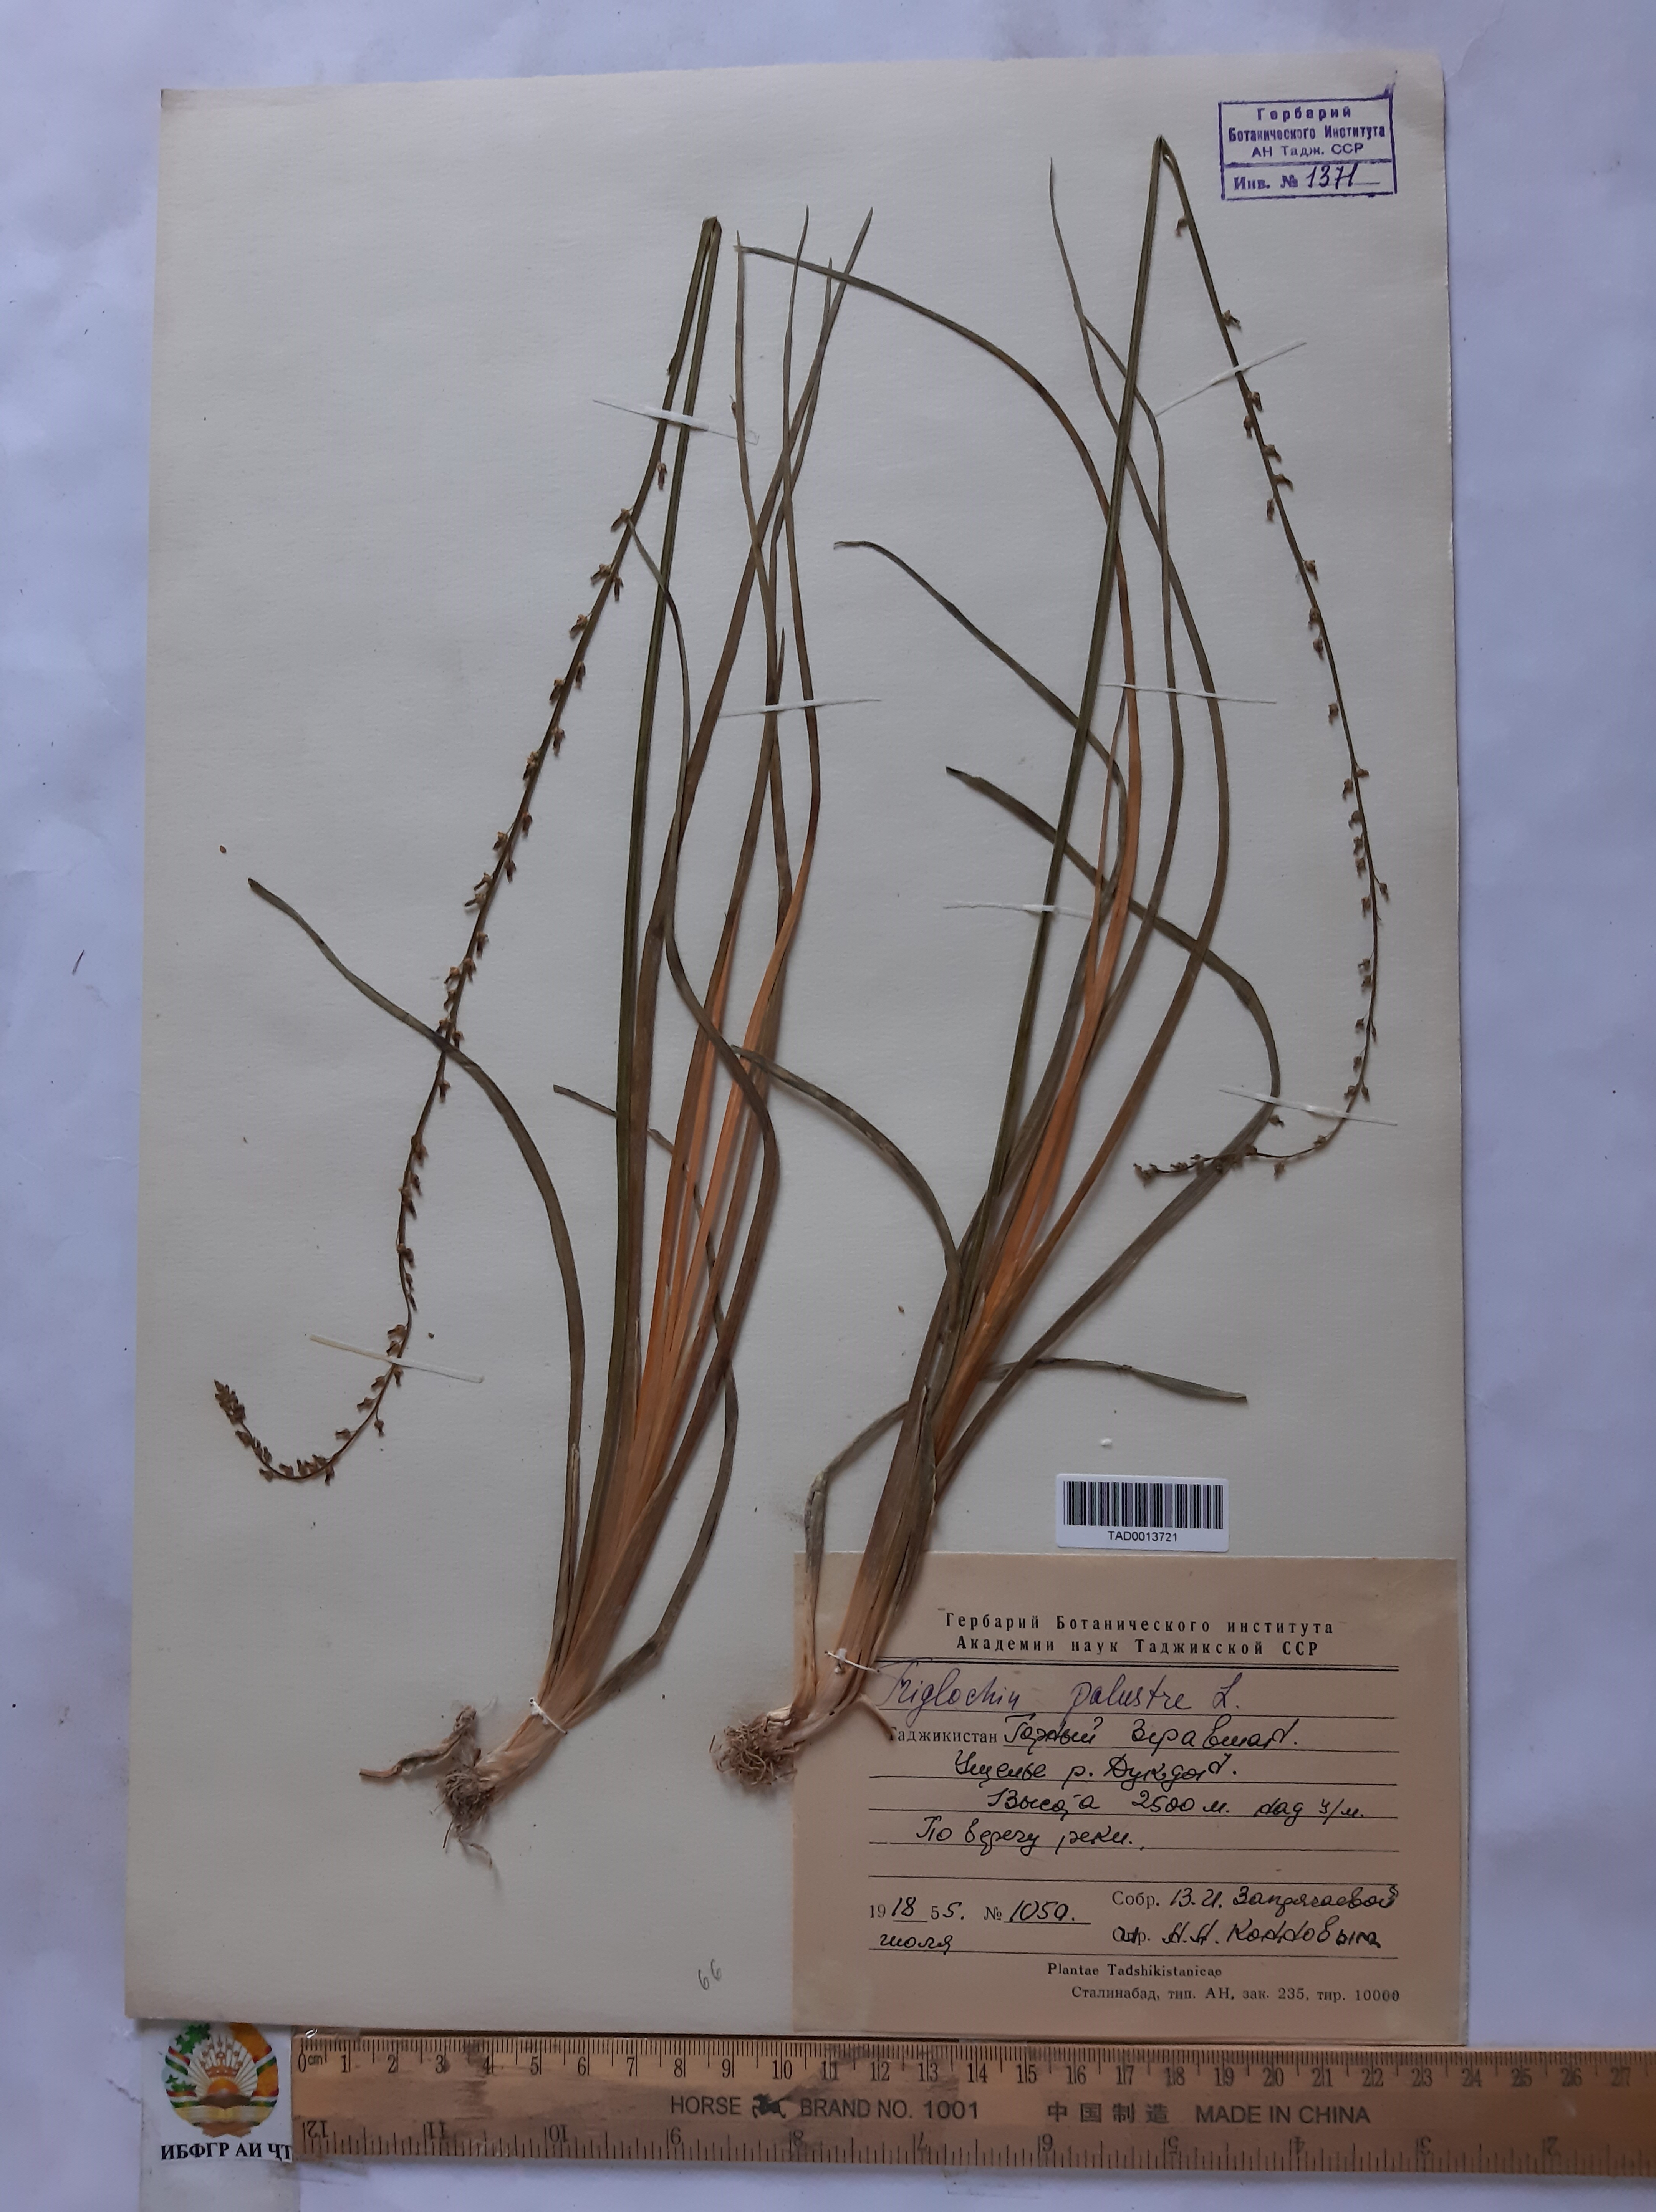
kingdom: Plantae
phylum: Tracheophyta
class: Liliopsida
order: Alismatales
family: Juncaginaceae
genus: Triglochin
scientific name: Triglochin palustris
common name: Marsh arrowgrass
